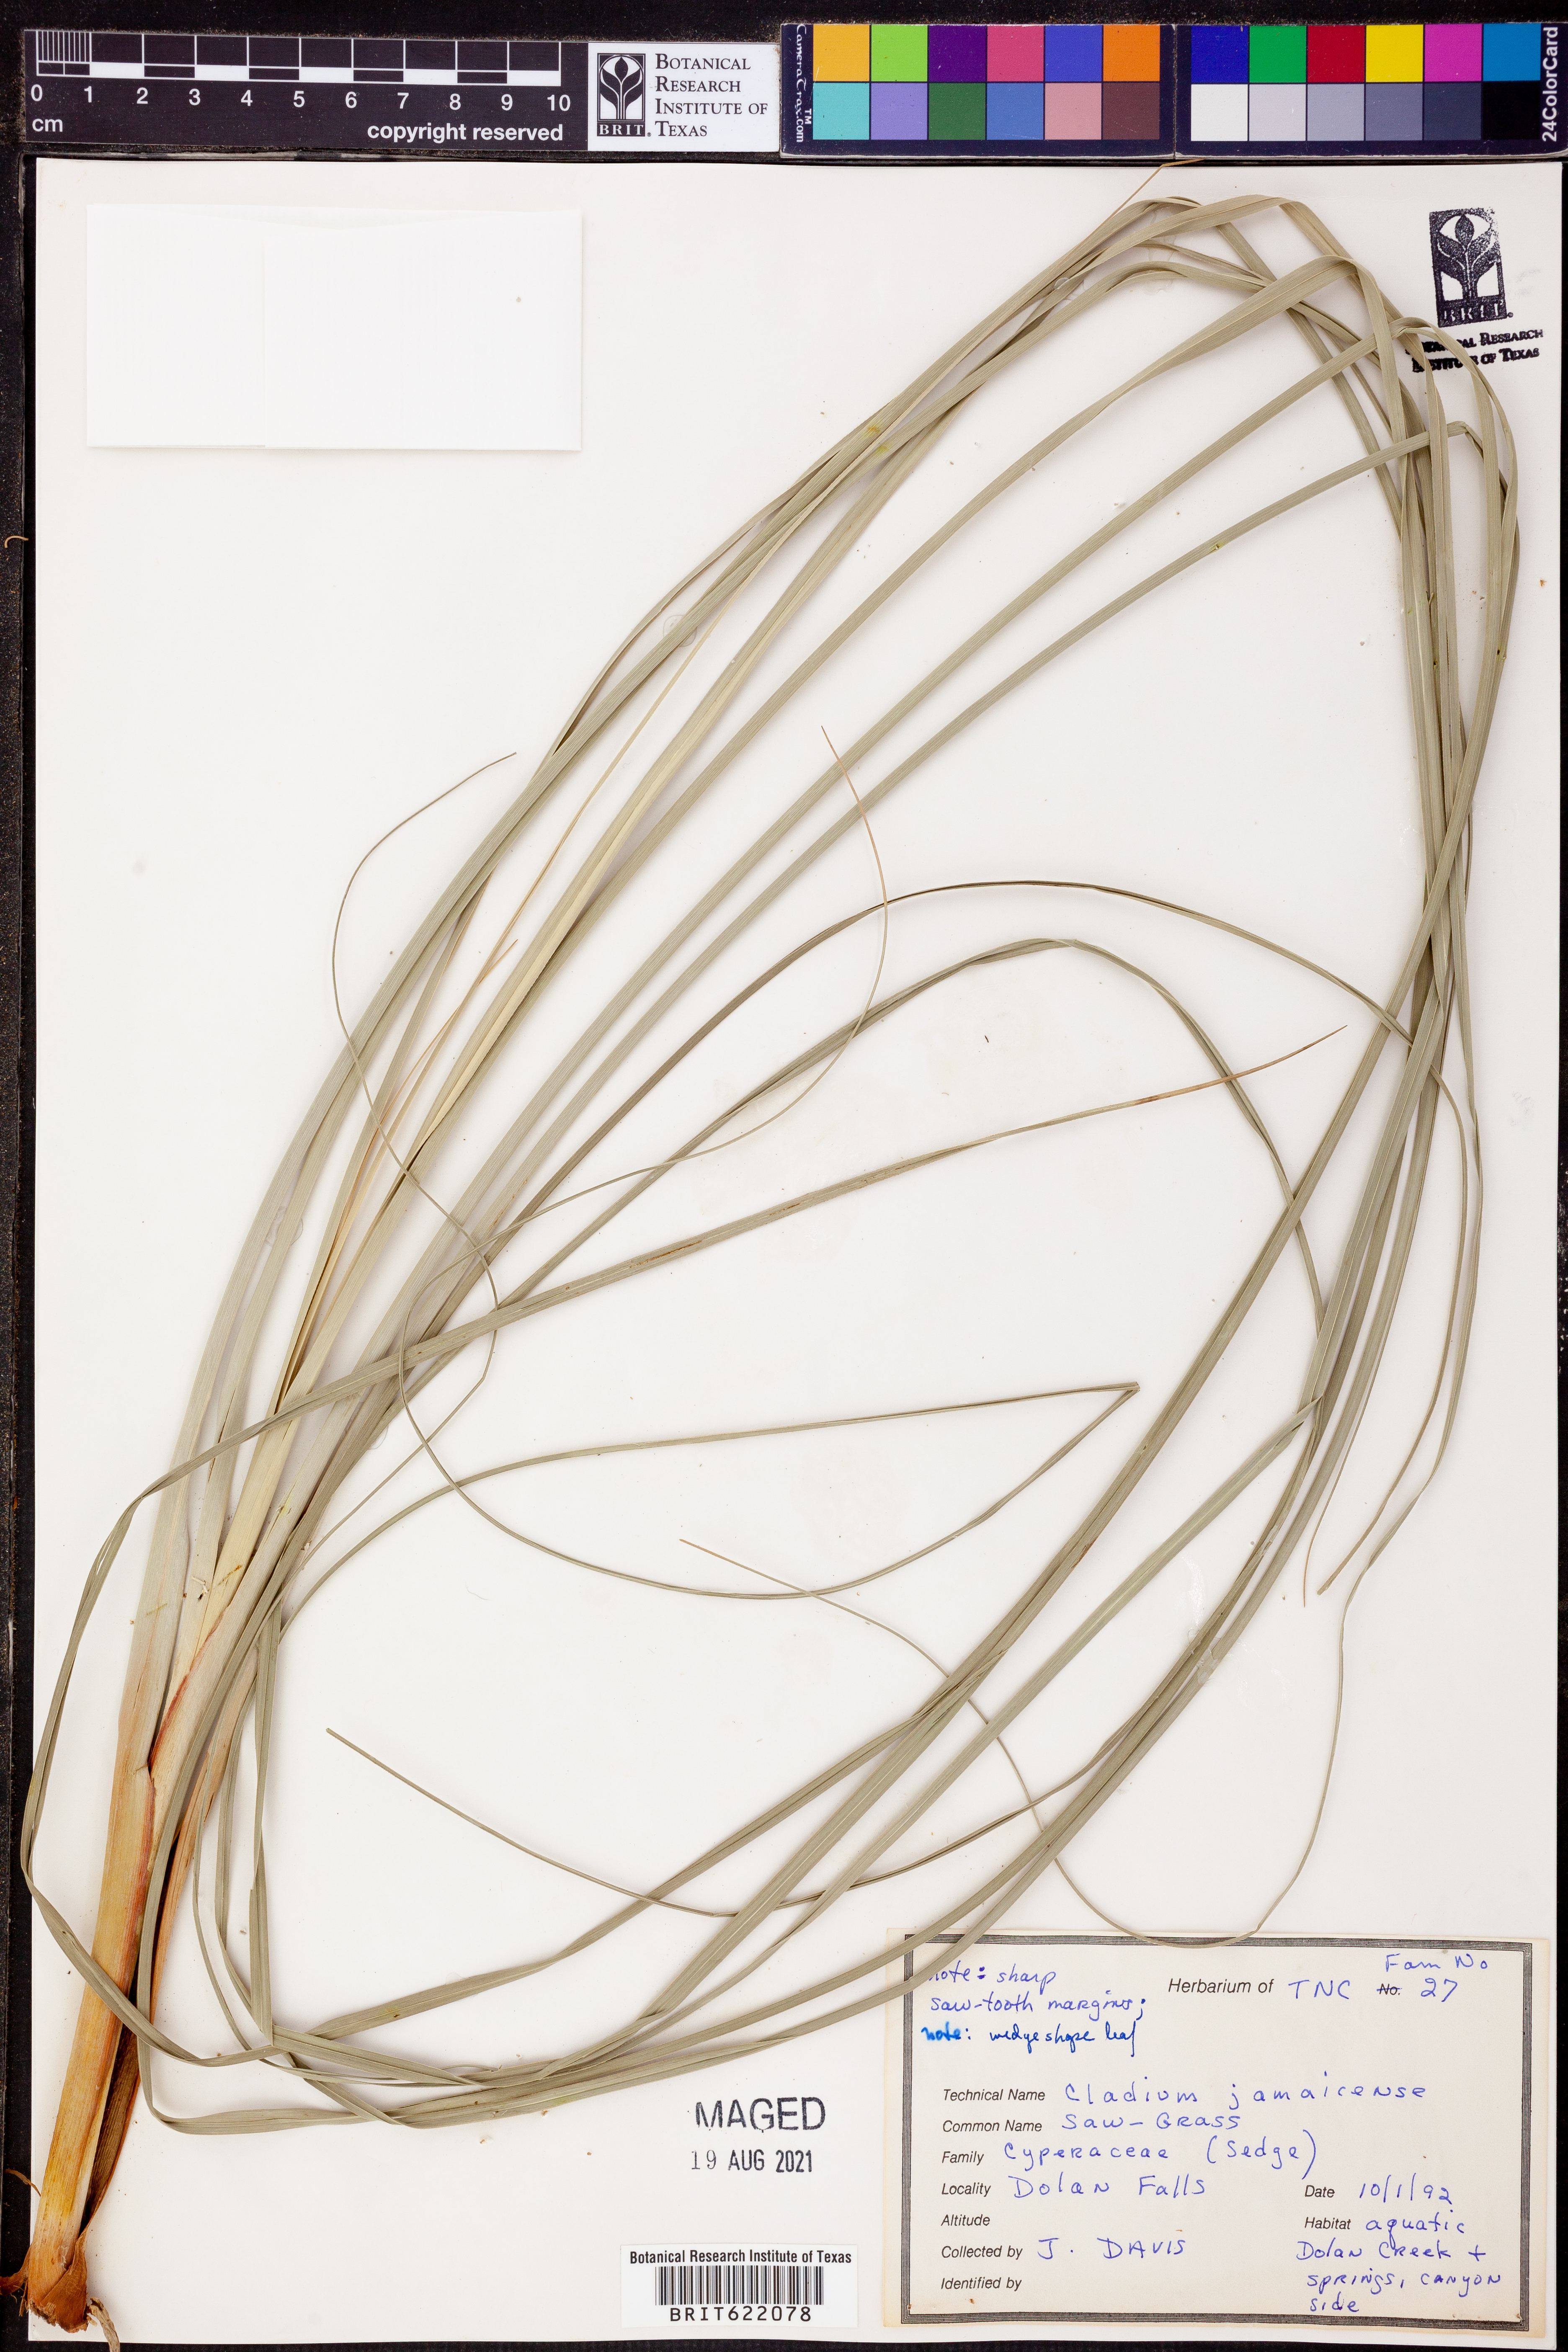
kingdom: Plantae
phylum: Tracheophyta
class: Liliopsida
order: Poales
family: Cyperaceae
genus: Cladium
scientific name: Cladium mariscus
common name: Great fen-sedge
